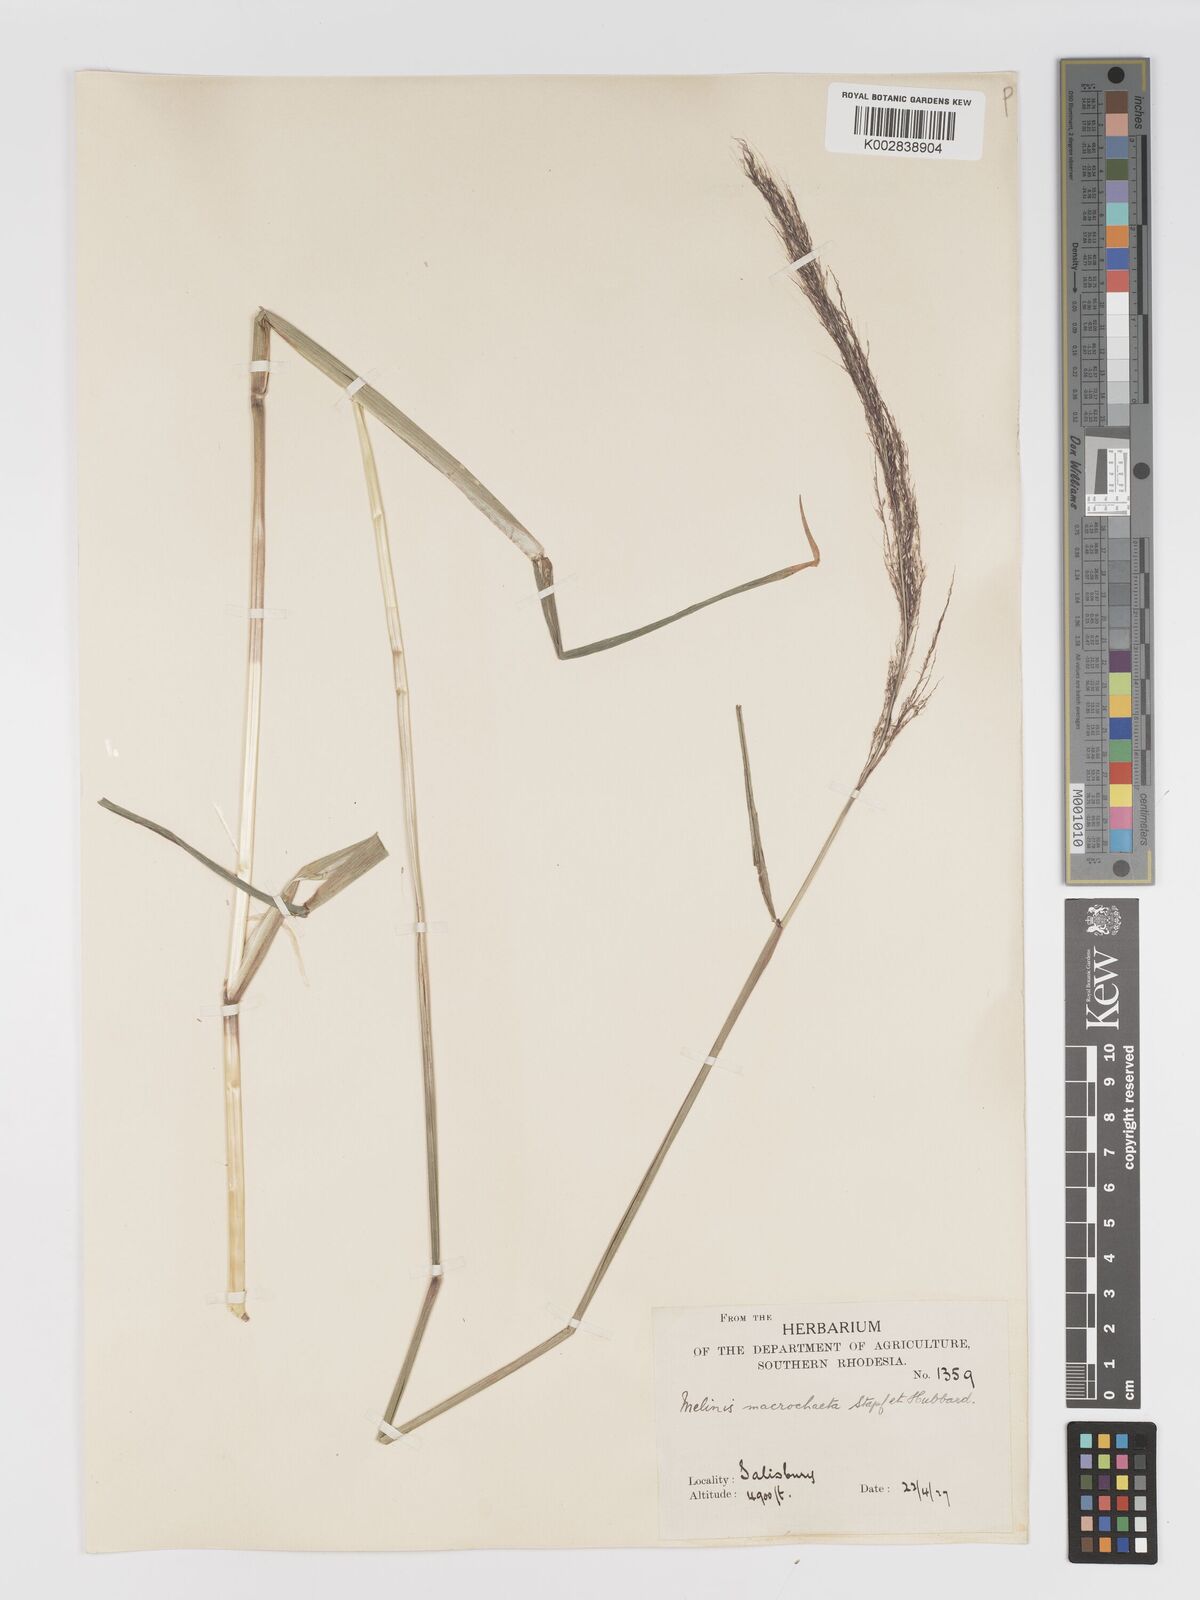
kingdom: Plantae
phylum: Tracheophyta
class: Liliopsida
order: Poales
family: Poaceae
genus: Melinis
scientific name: Melinis macrochaeta
